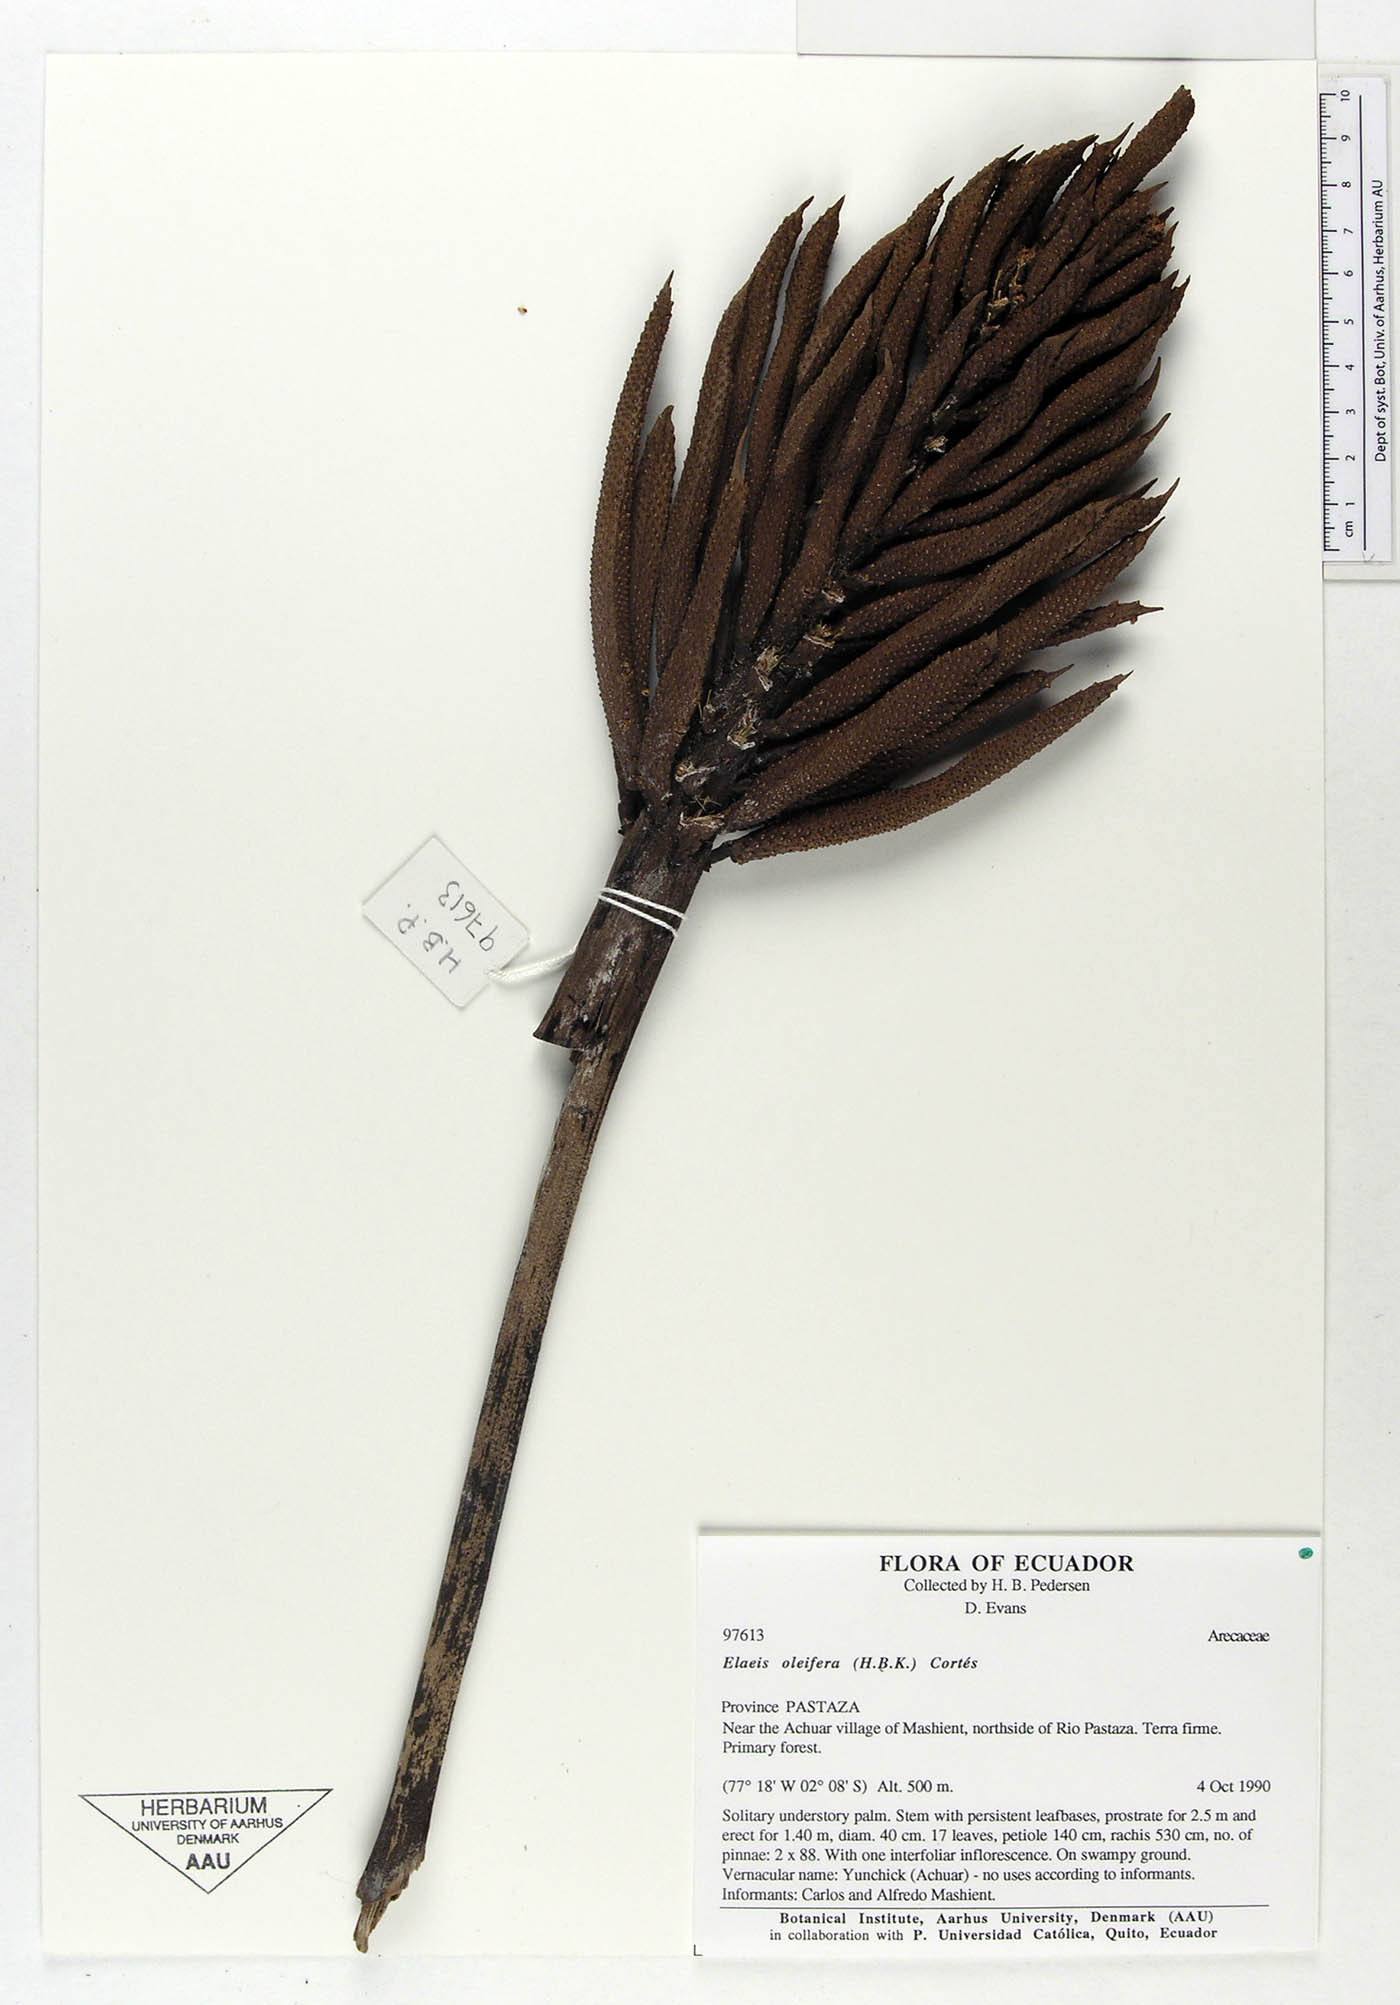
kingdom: Plantae
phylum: Tracheophyta
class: Liliopsida
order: Arecales
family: Arecaceae
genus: Elaeis
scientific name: Elaeis oleifera
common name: American oil palm
